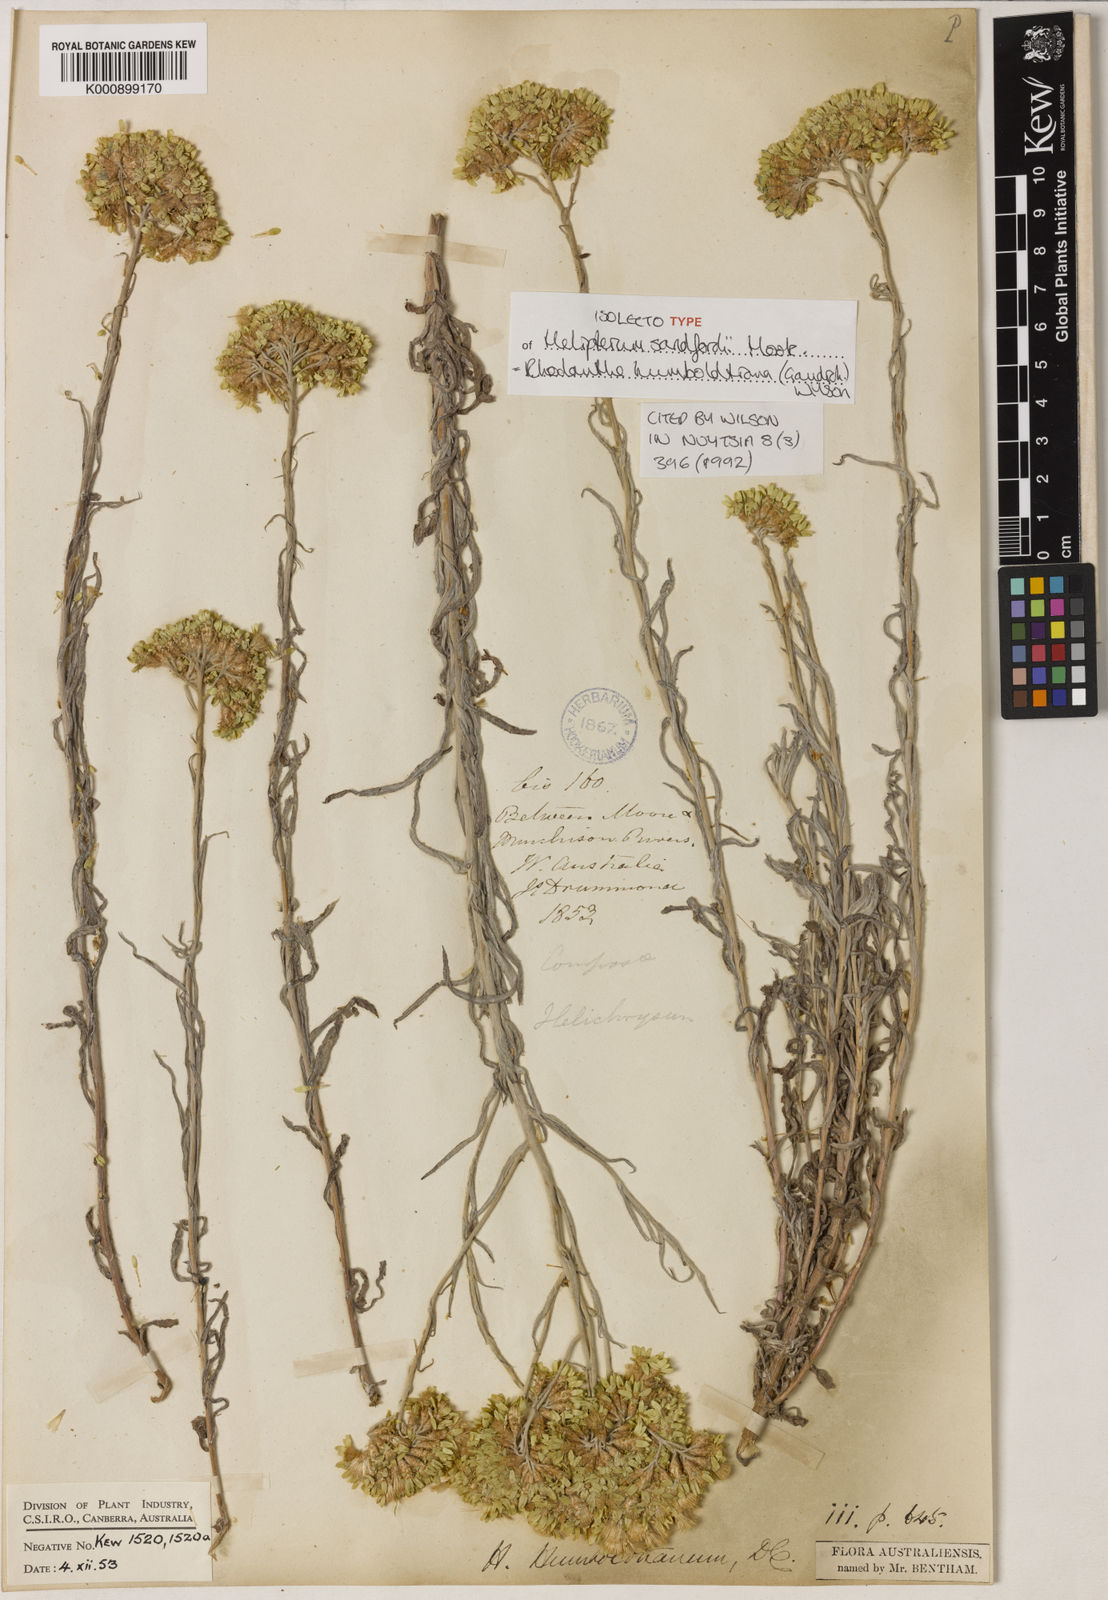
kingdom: Plantae
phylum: Tracheophyta
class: Magnoliopsida
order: Asterales
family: Asteraceae
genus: Rhodanthe
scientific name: Rhodanthe humboldtiana
